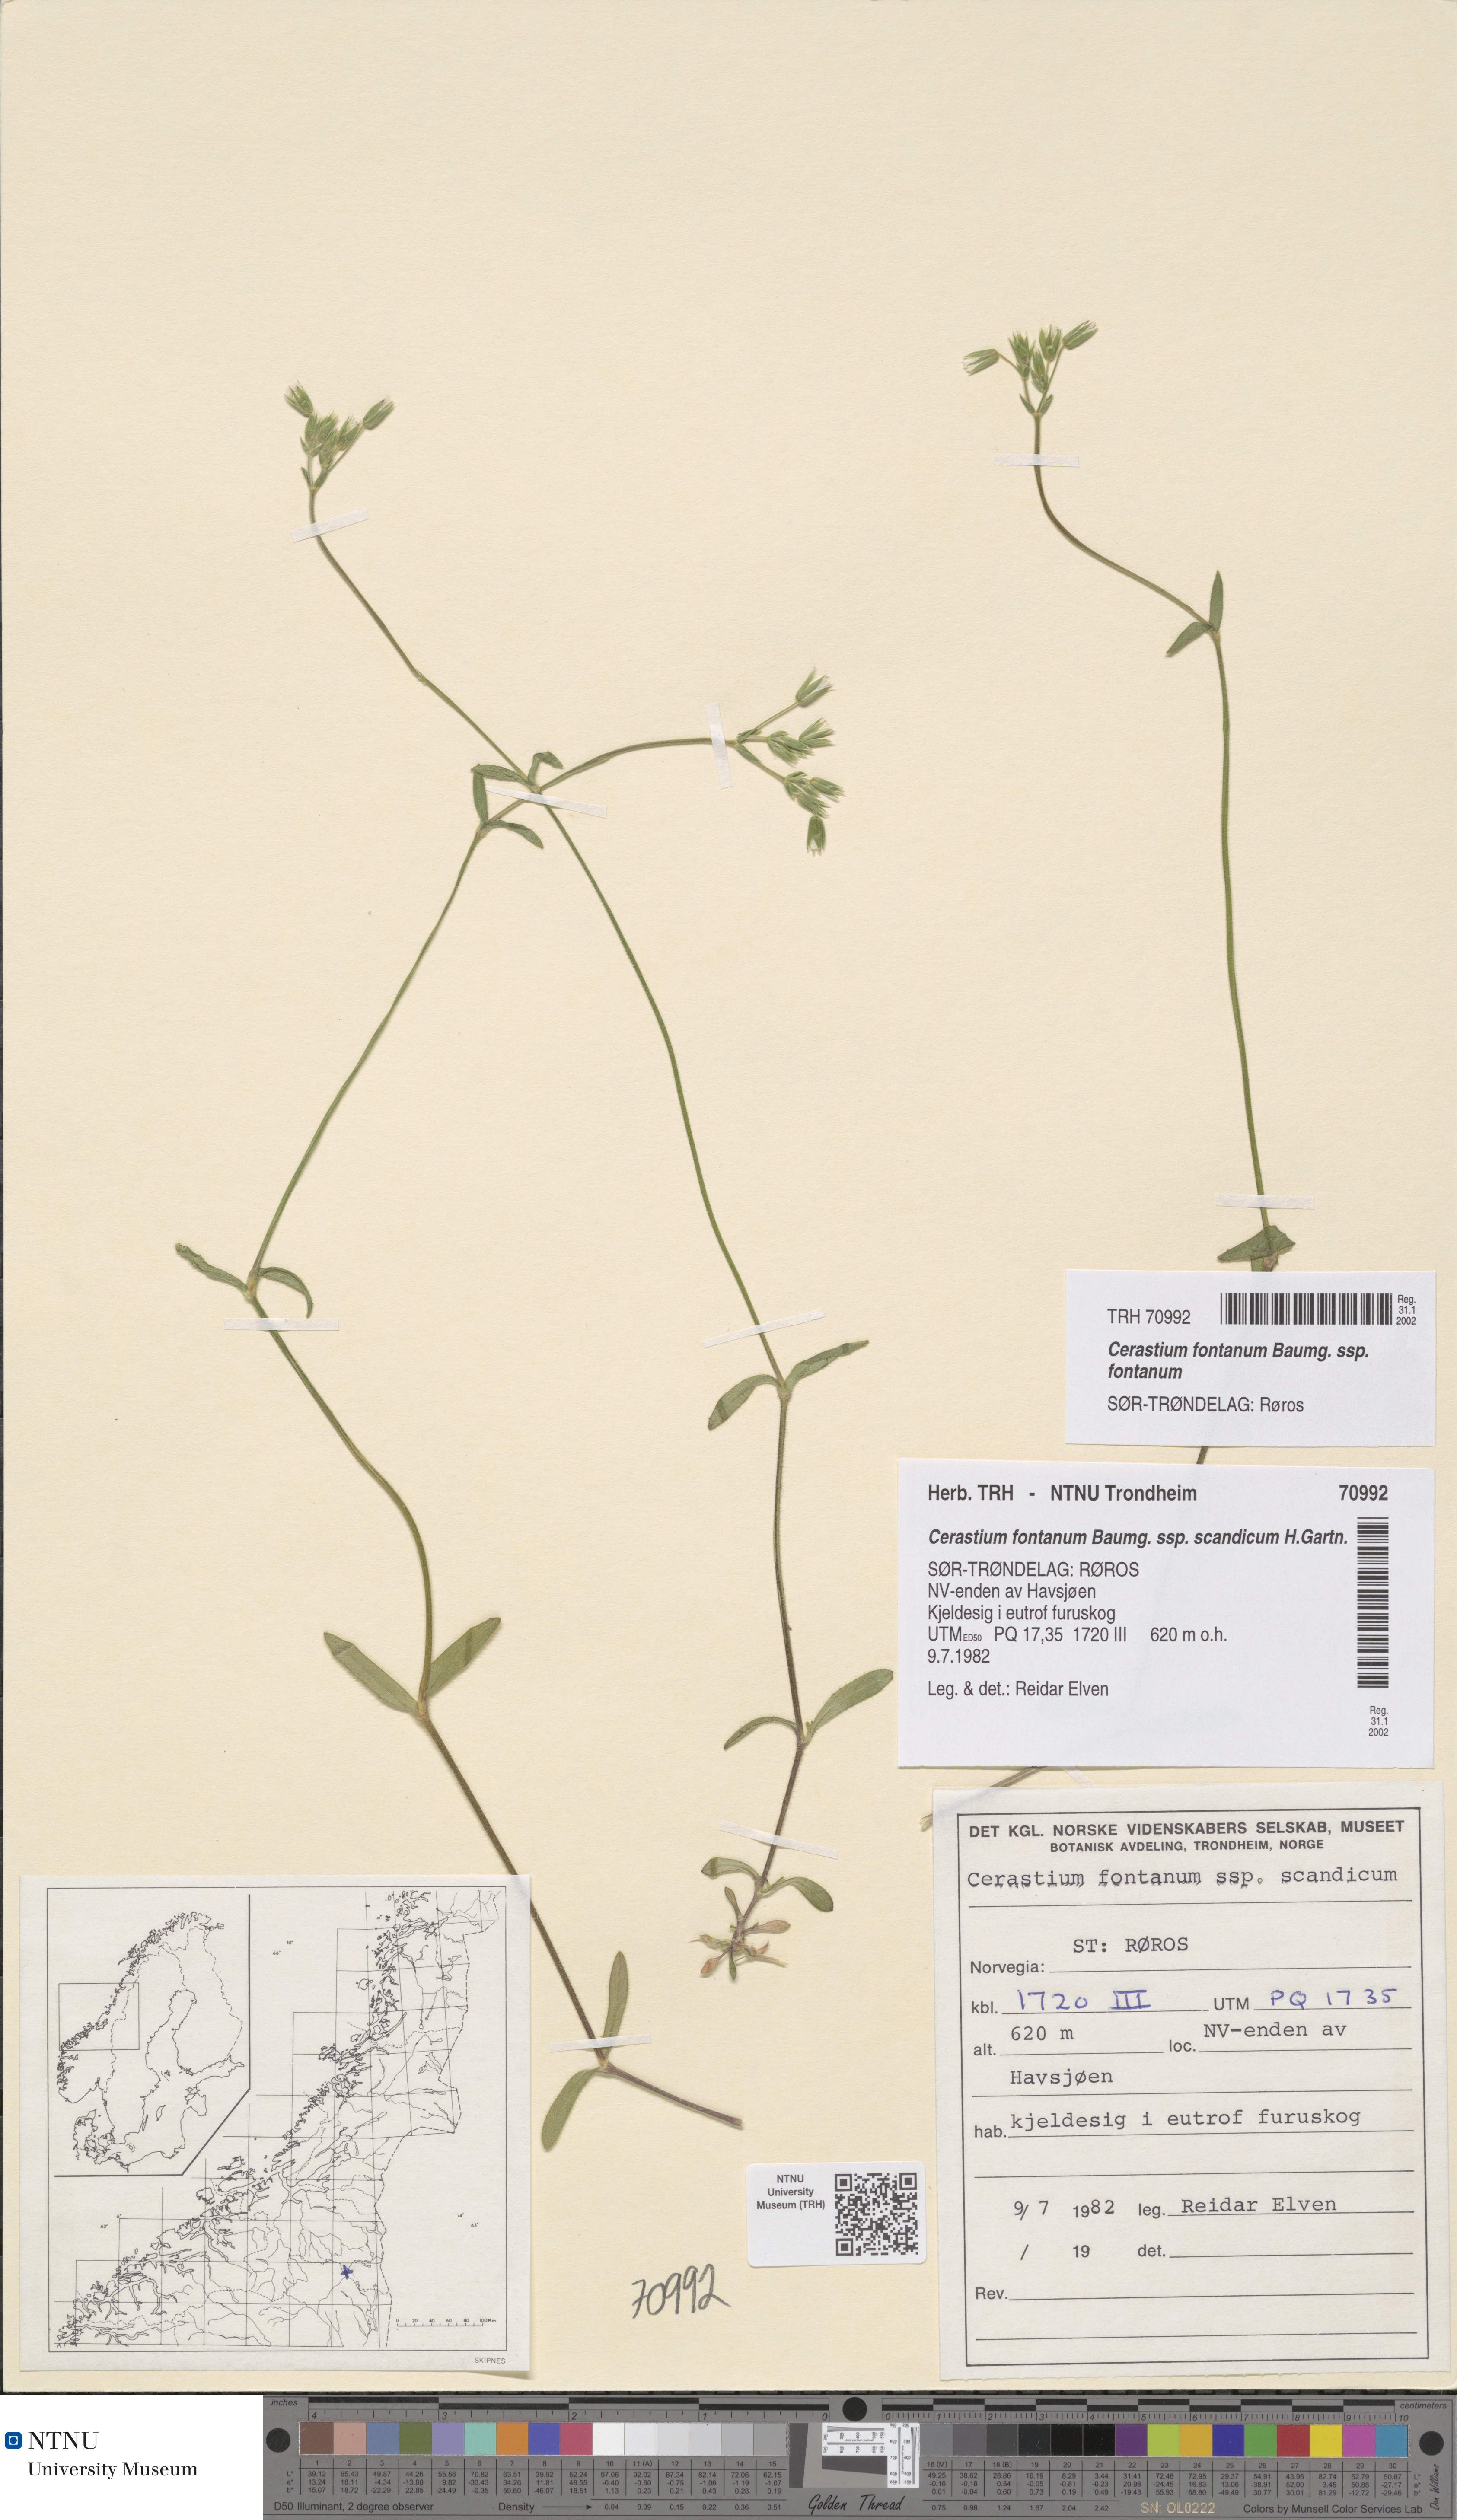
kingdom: Plantae
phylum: Tracheophyta
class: Magnoliopsida
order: Caryophyllales
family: Caryophyllaceae
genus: Cerastium
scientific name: Cerastium fontanum
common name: Common mouse-ear
